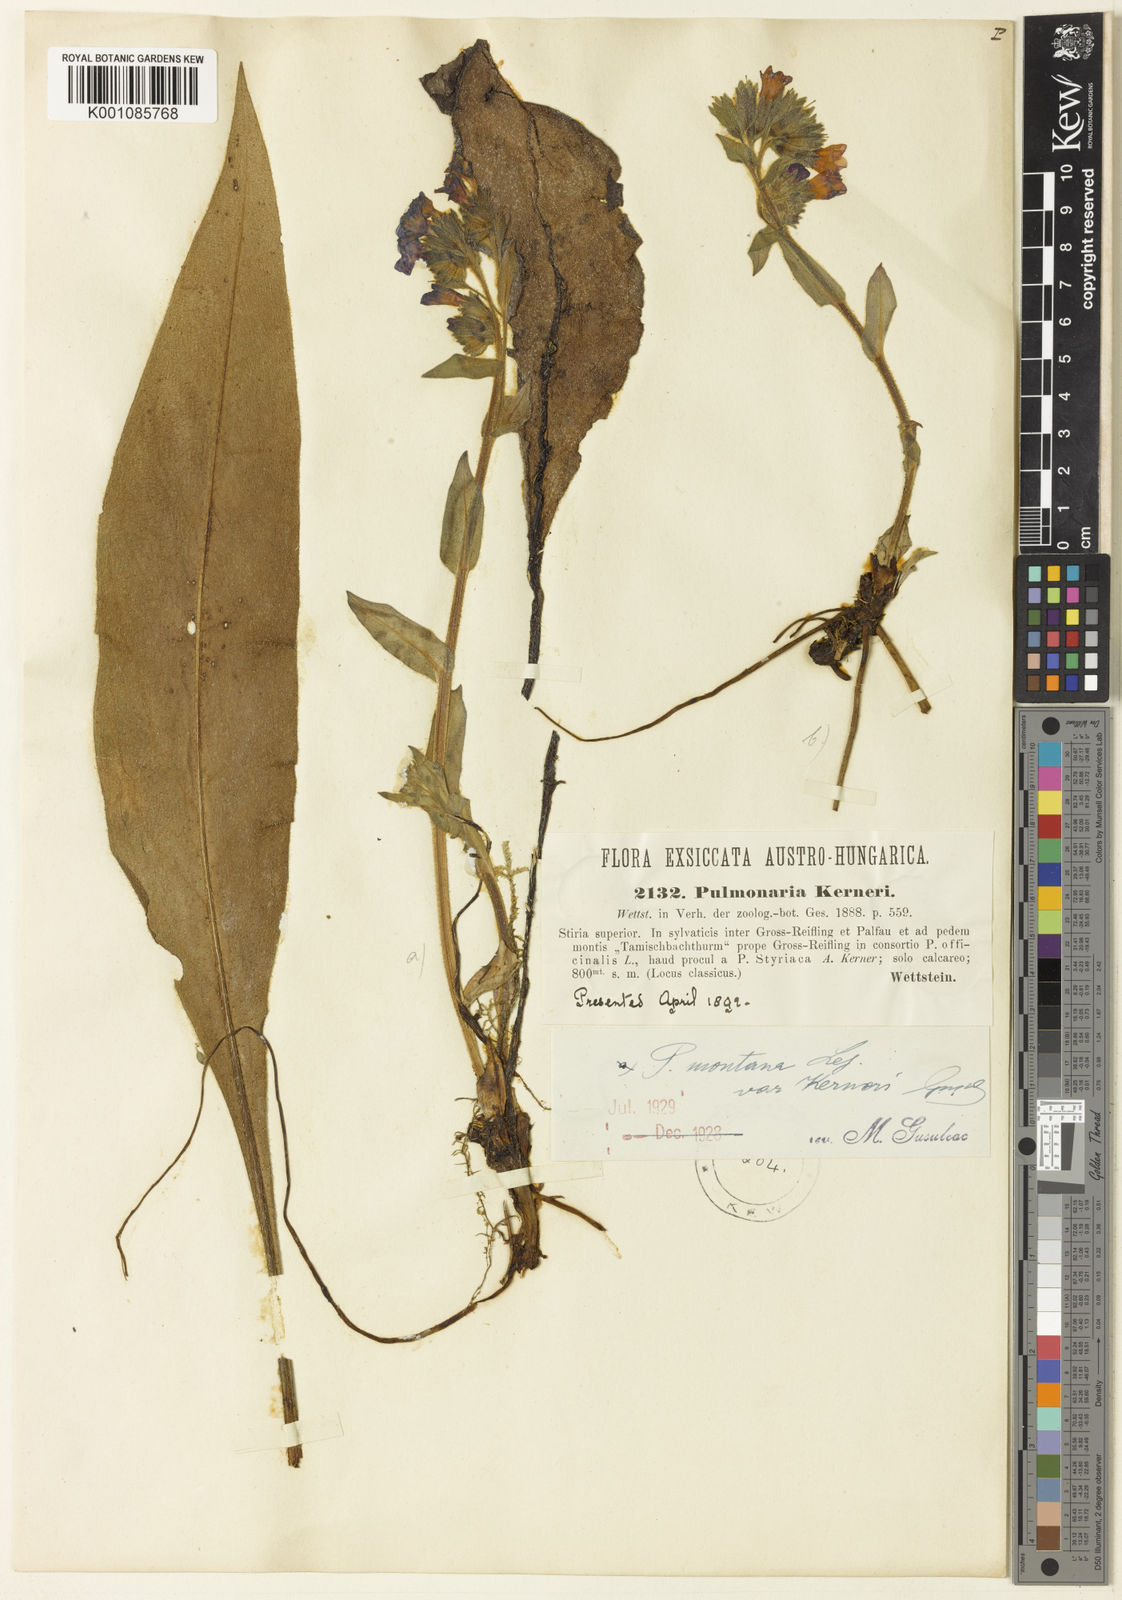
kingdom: Plantae
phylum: Tracheophyta
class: Magnoliopsida
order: Boraginales
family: Boraginaceae
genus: Pulmonaria
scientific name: Pulmonaria kerneri
